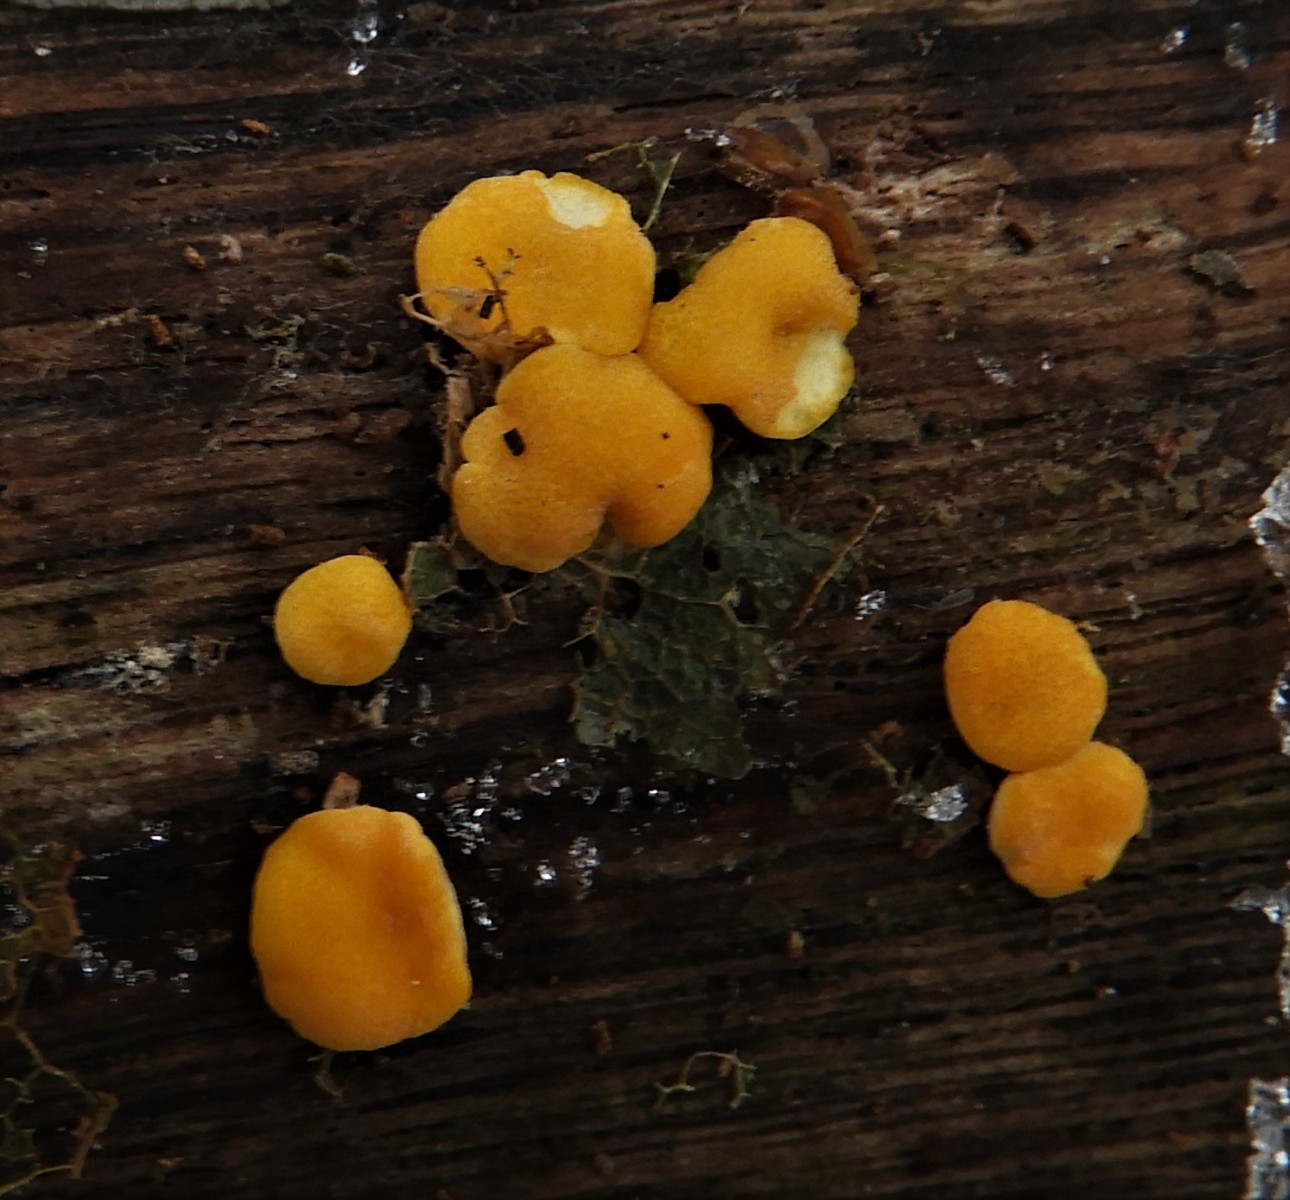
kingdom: Fungi
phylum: Ascomycota
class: Sordariomycetes
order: Hypocreales
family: Hypocreaceae
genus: Trichoderma
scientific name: Trichoderma aureoviride
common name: æggegul kødkerne
